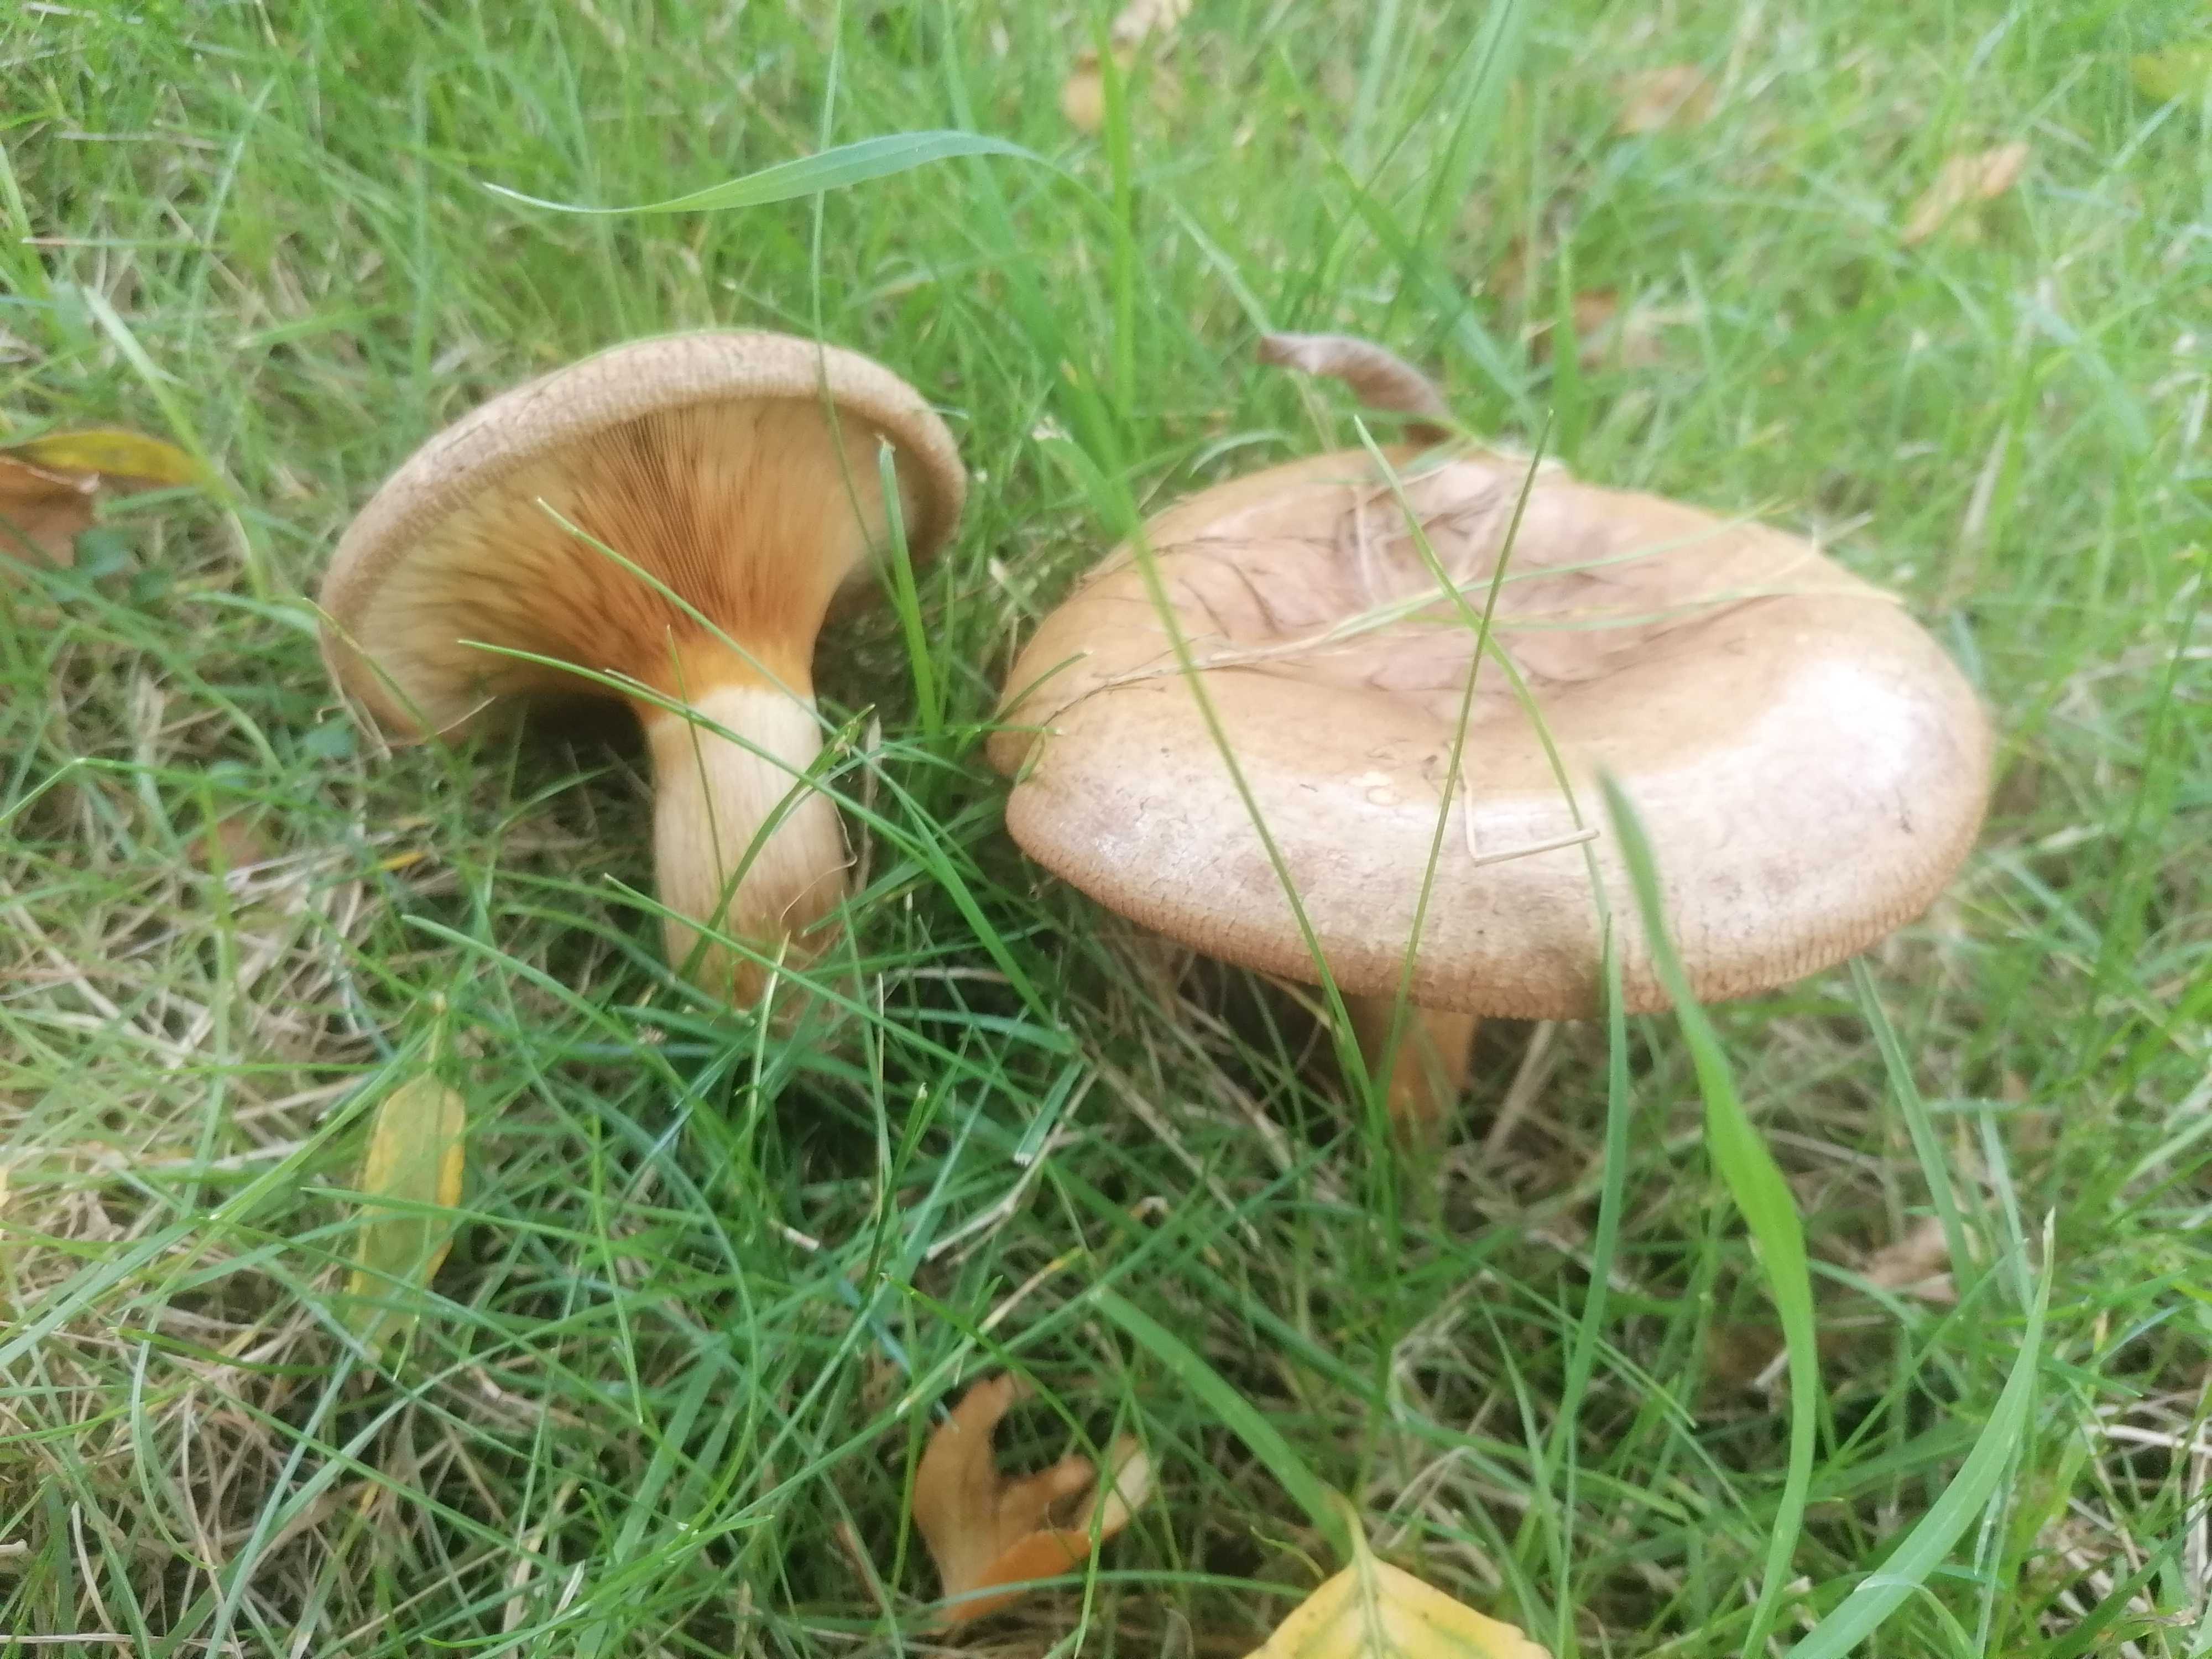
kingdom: Fungi
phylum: Basidiomycota
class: Agaricomycetes
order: Boletales
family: Paxillaceae
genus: Paxillus
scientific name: Paxillus
